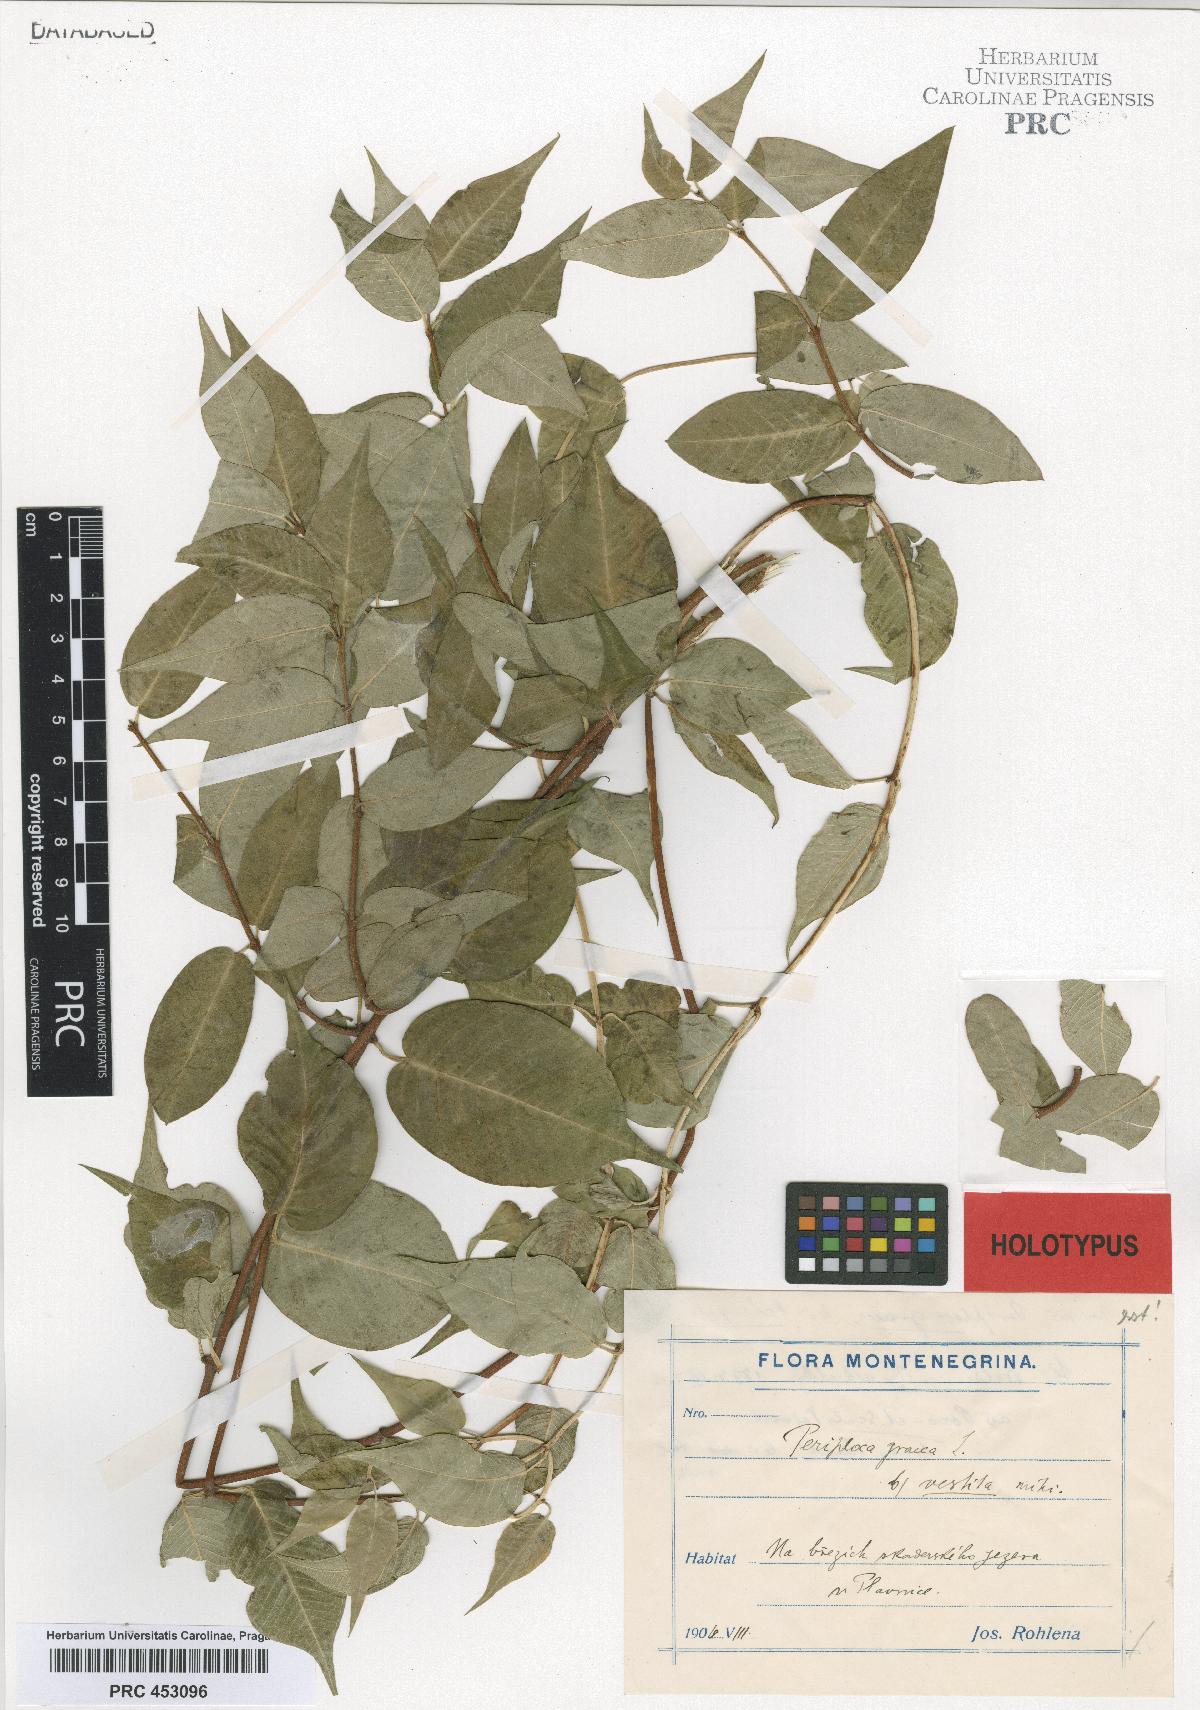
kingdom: Plantae
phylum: Tracheophyta
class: Magnoliopsida
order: Gentianales
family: Apocynaceae
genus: Periploca
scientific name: Periploca graeca
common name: Silkvine
